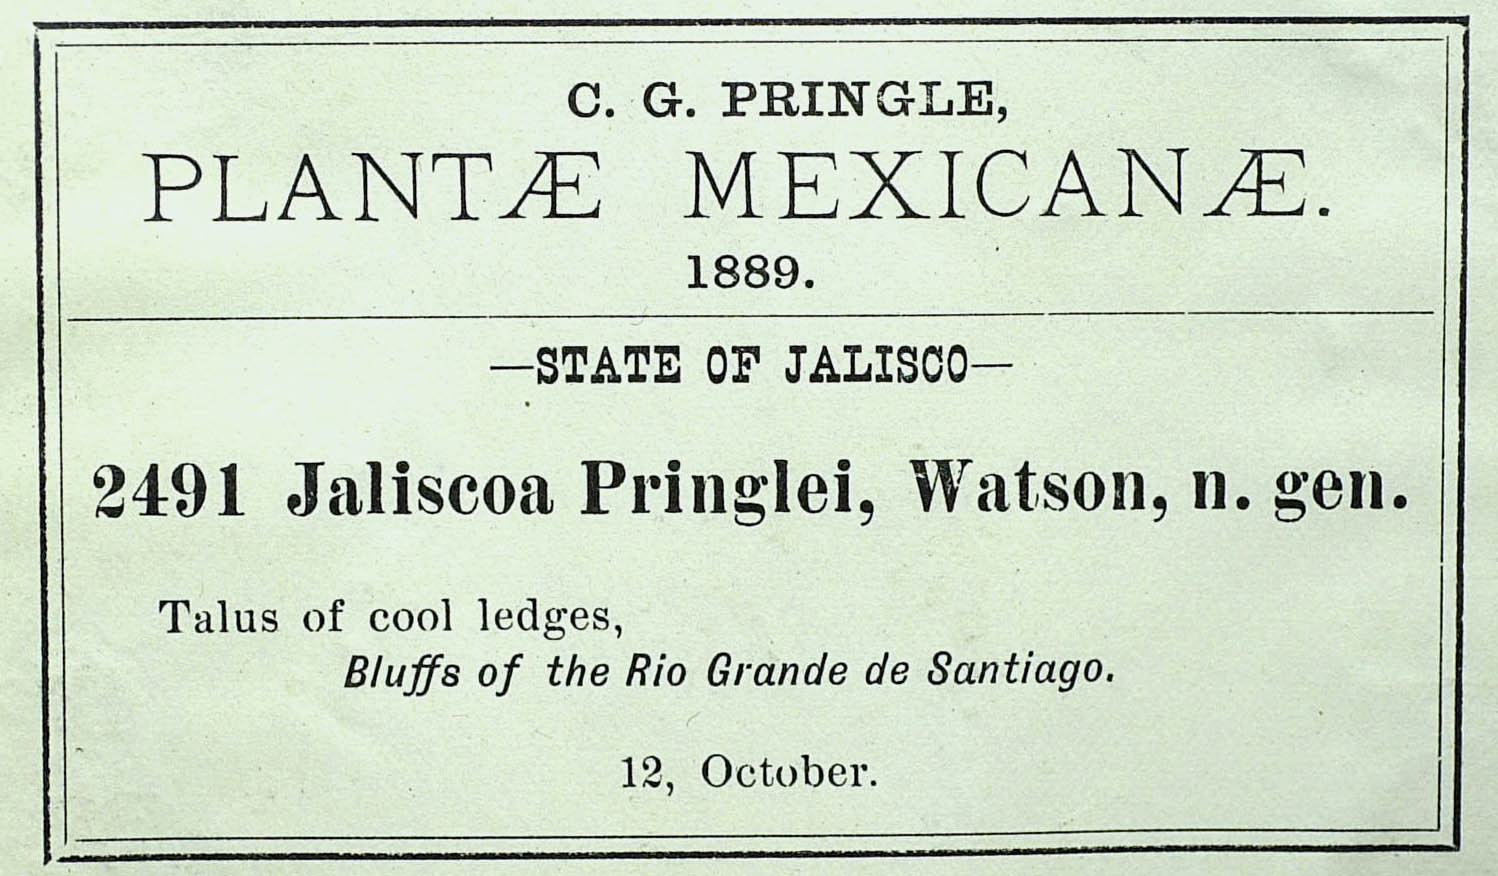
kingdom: Plantae
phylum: Tracheophyta
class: Magnoliopsida
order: Asterales
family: Asteraceae
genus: Jaliscoa
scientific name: Jaliscoa pringlei
